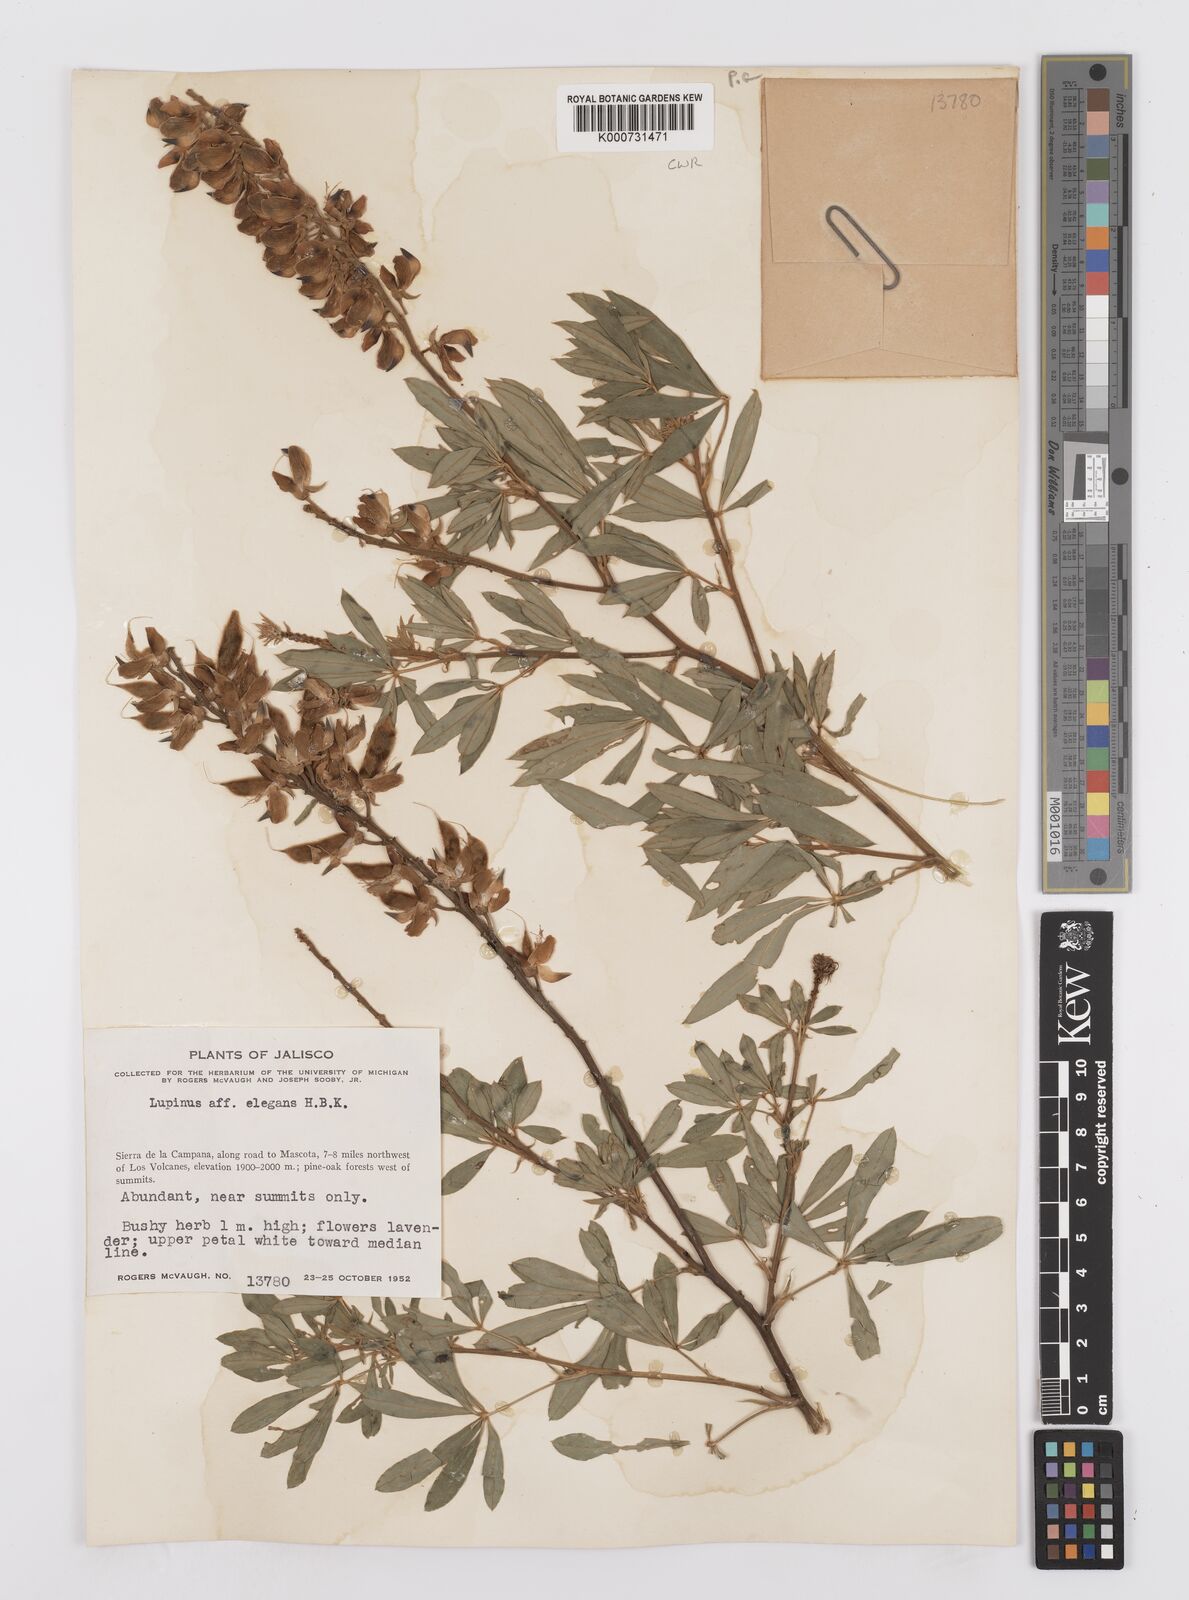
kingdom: Plantae
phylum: Tracheophyta
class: Magnoliopsida
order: Fabales
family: Fabaceae
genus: Lupinus
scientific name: Lupinus elegans
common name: Mexican lupine
